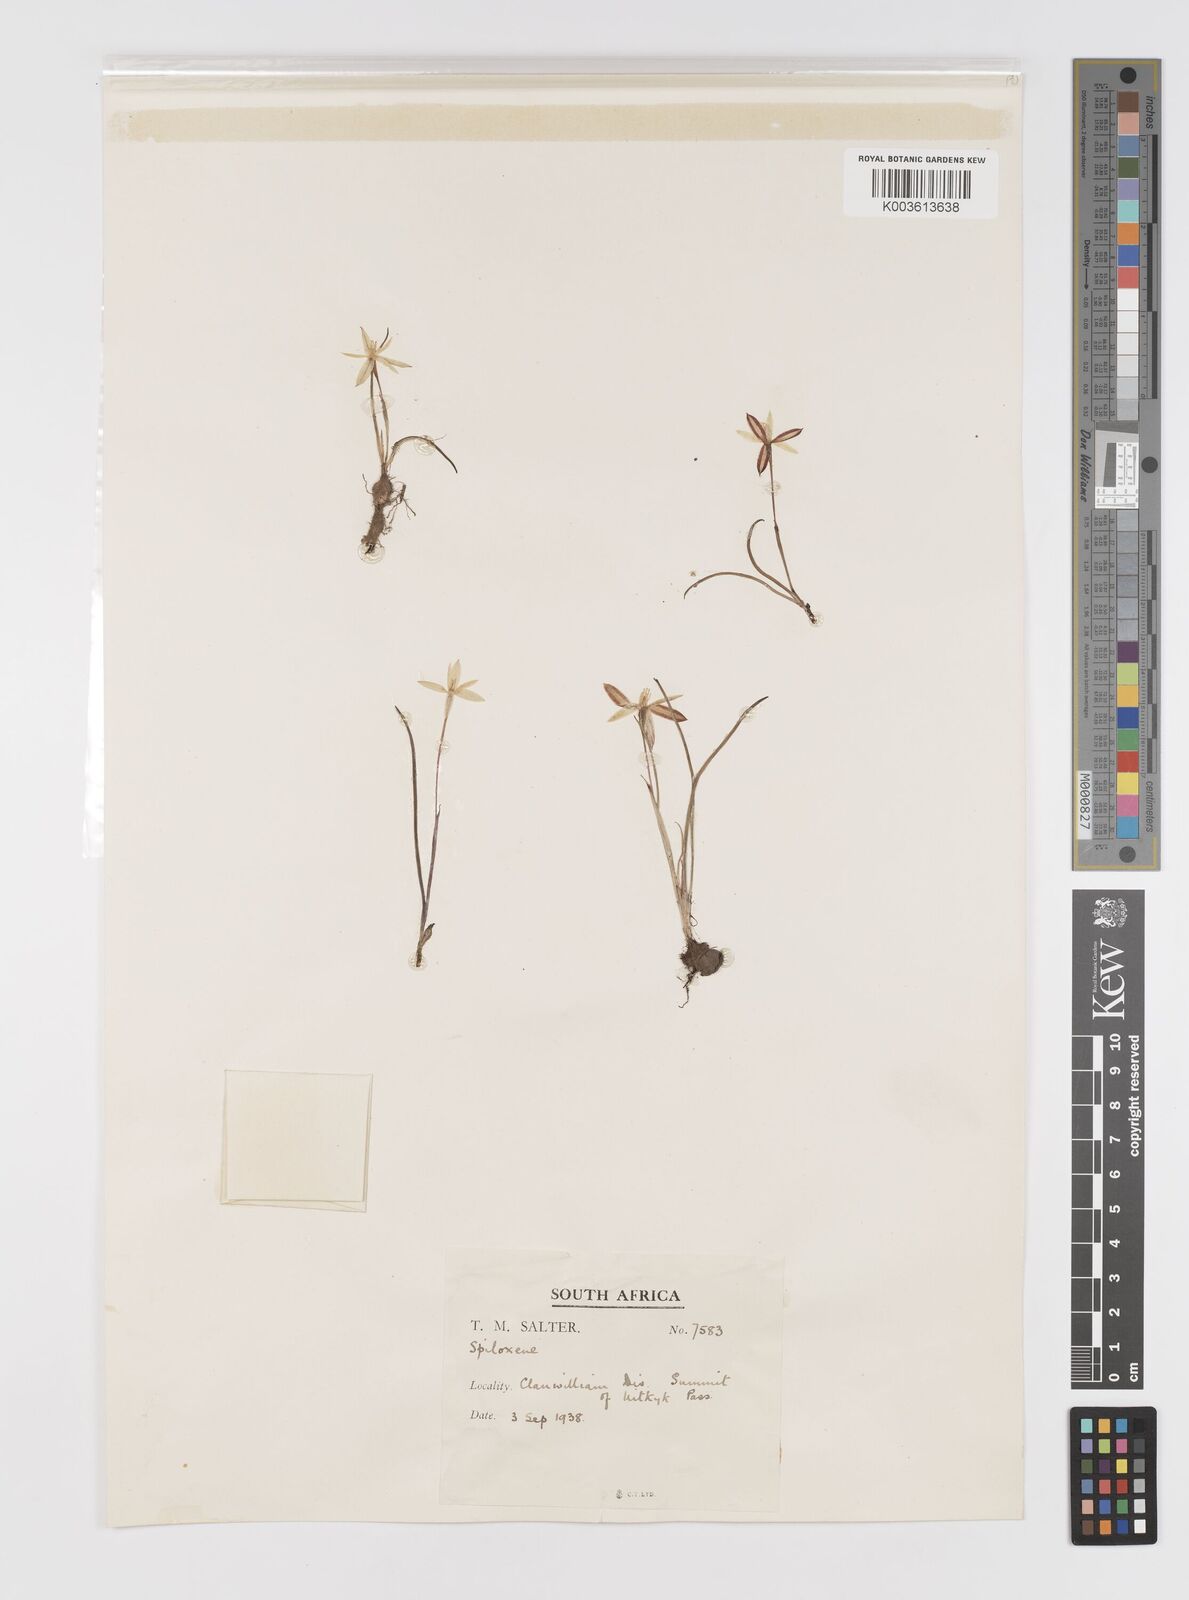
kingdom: Plantae
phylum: Tracheophyta
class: Liliopsida
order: Asparagales
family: Hypoxidaceae
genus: Pauridia
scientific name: Pauridia
